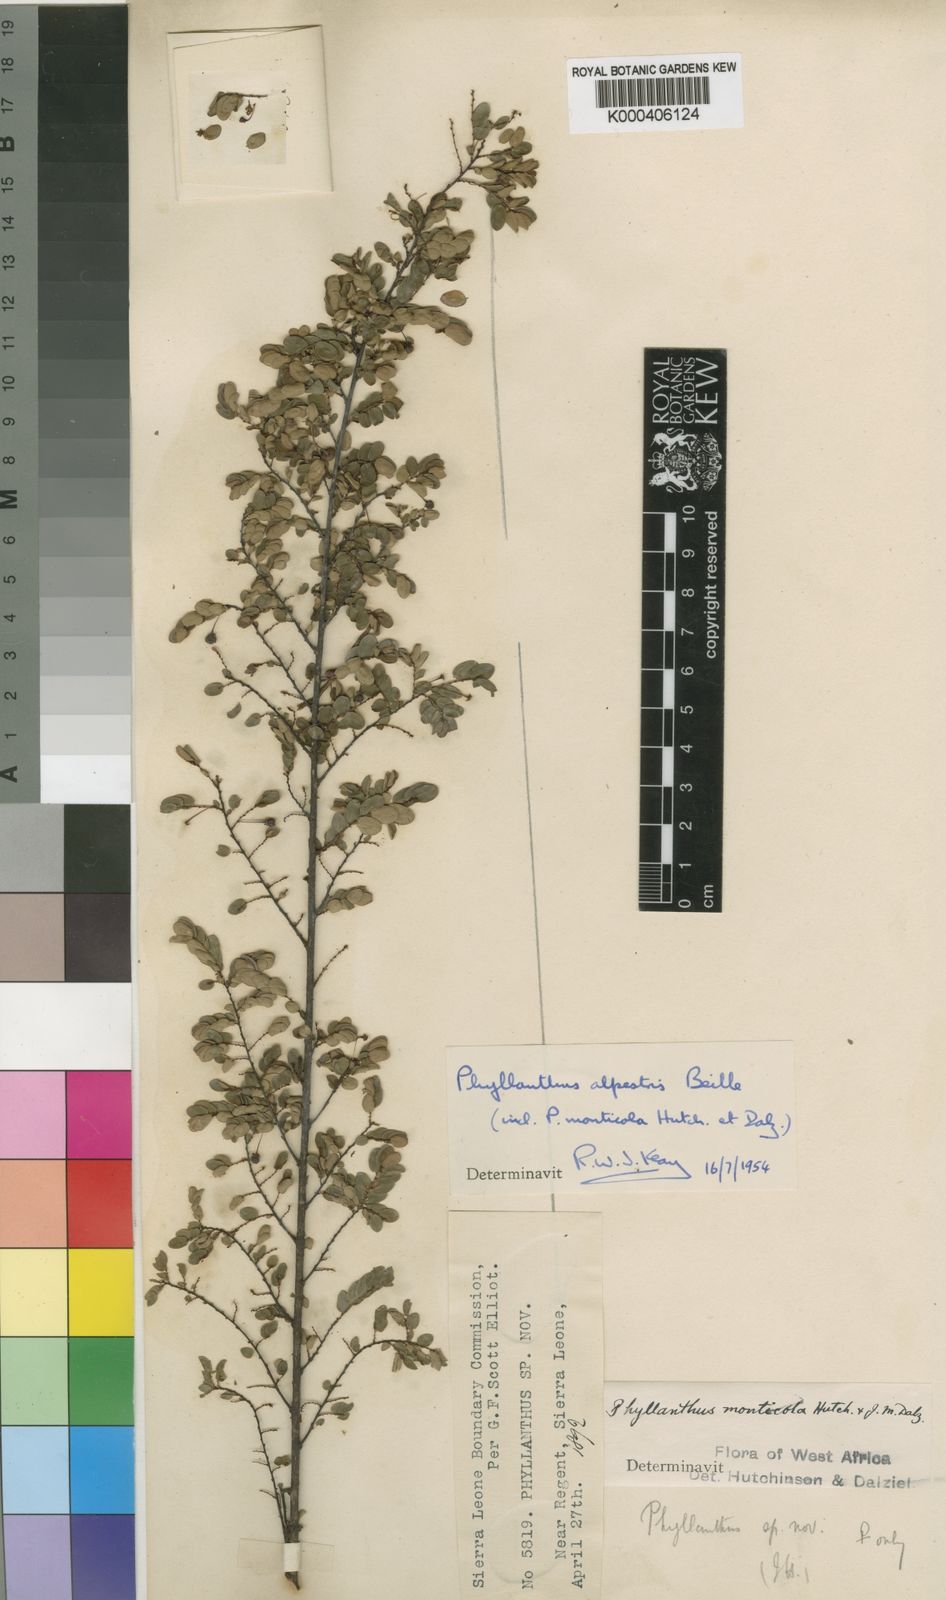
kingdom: Plantae
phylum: Tracheophyta
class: Magnoliopsida
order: Malpighiales
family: Phyllanthaceae
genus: Phyllanthus
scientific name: Phyllanthus glaucophyllus
